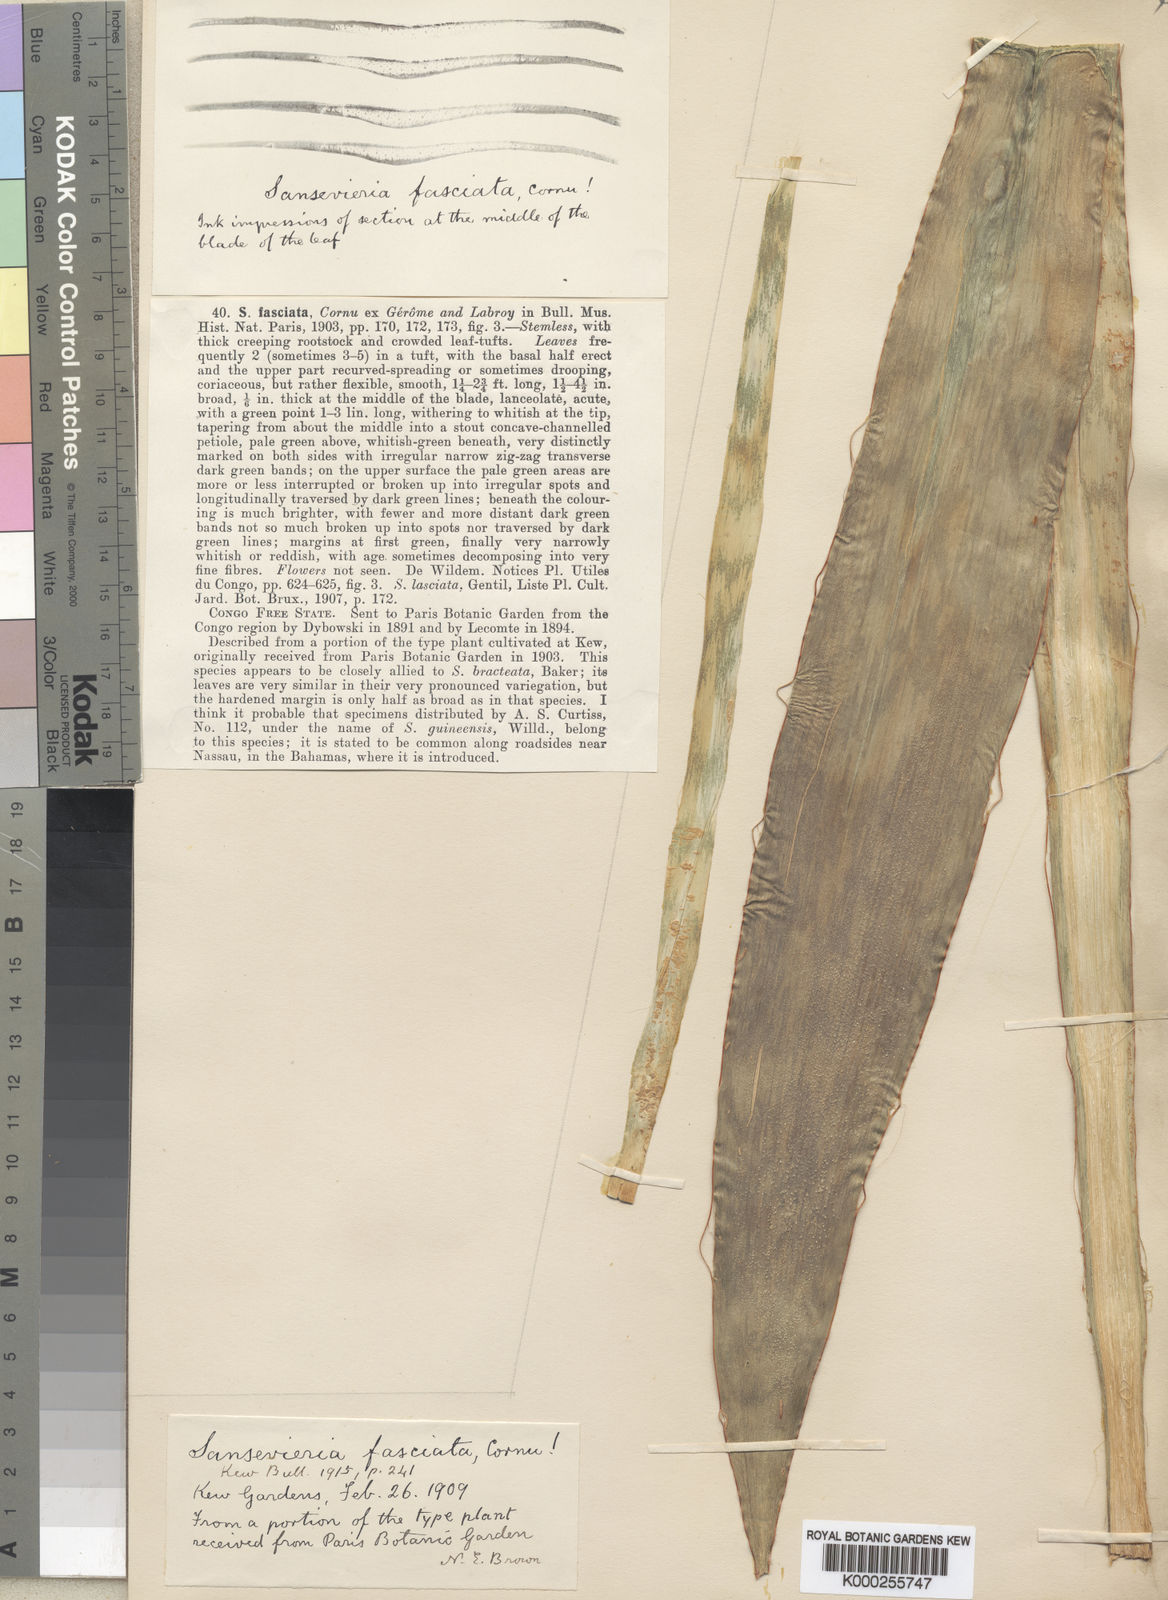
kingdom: Plantae
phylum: Tracheophyta
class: Liliopsida
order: Asparagales
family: Asparagaceae
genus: Dracaena
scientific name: Dracaena fasciata
